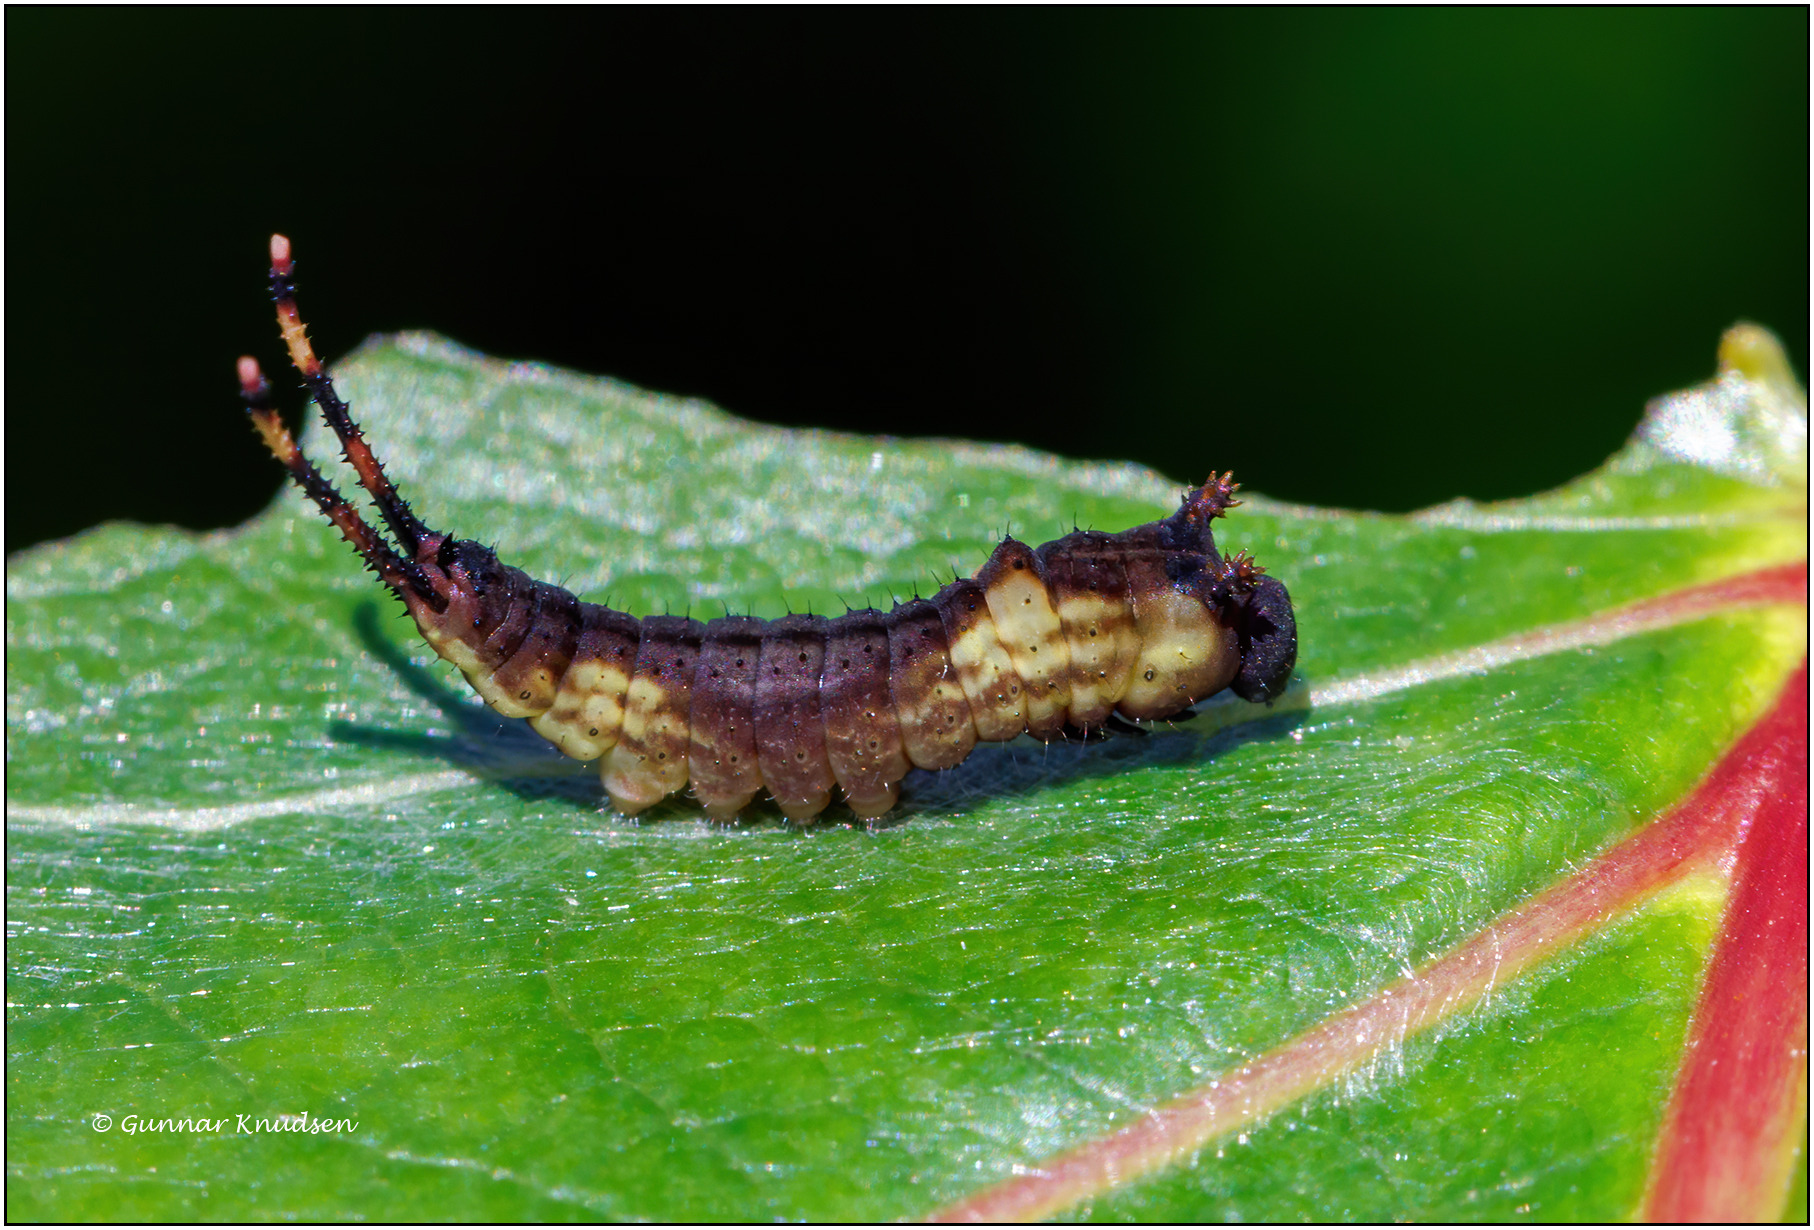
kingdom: Animalia
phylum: Arthropoda
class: Insecta
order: Lepidoptera
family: Notodontidae
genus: Cerura
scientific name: Cerura vinula
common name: Hermelinskåbe
